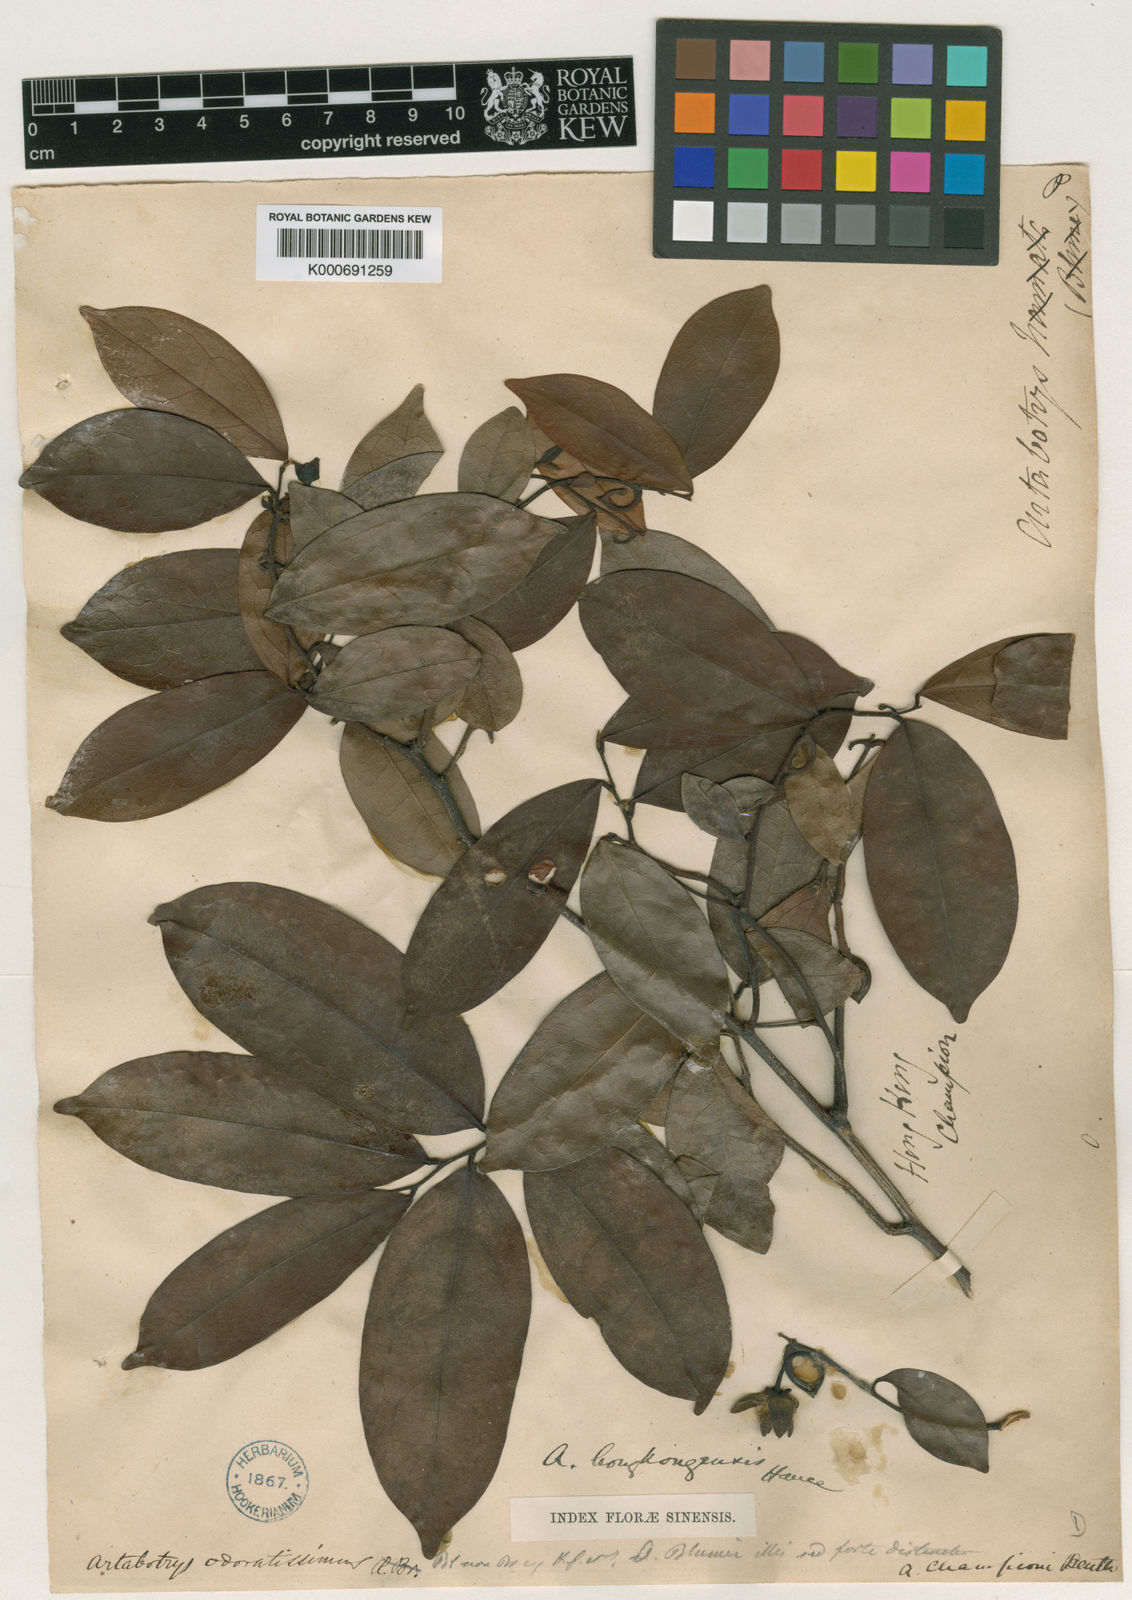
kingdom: Plantae
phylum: Tracheophyta
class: Magnoliopsida
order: Magnoliales
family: Annonaceae
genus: Artabotrys
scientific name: Artabotrys
